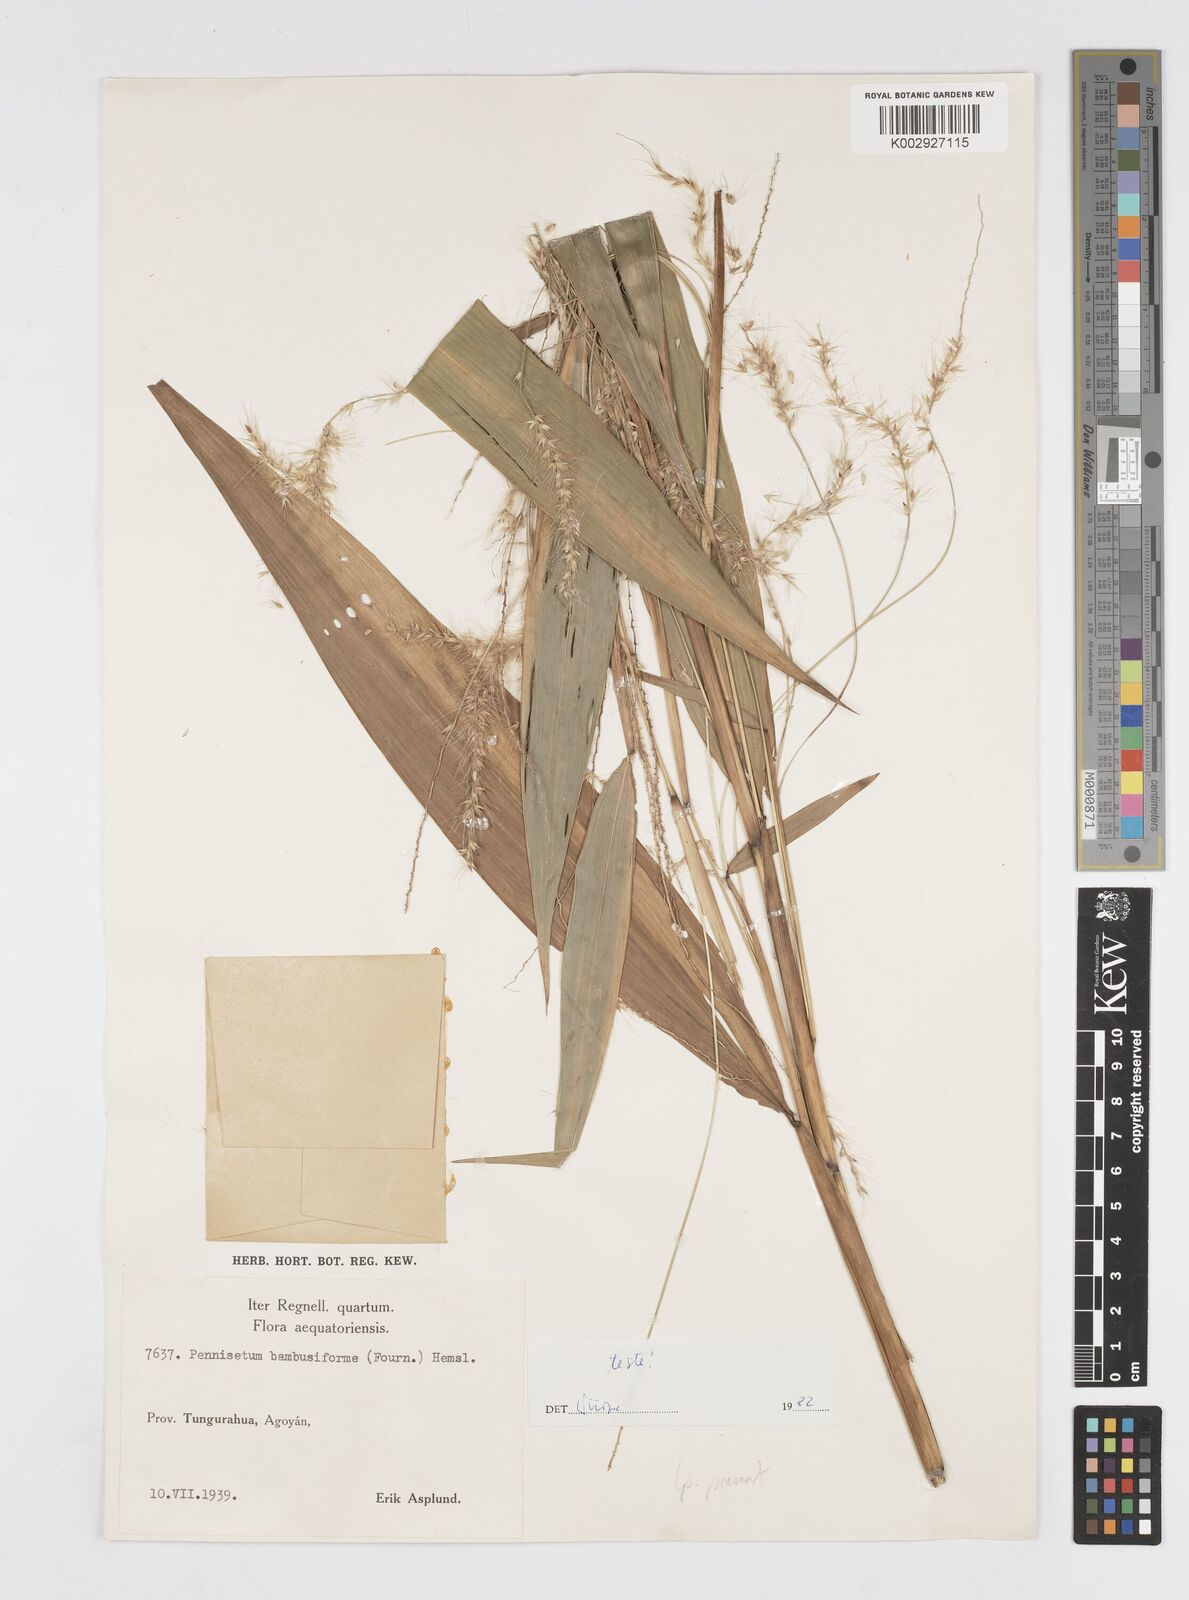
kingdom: Plantae
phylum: Tracheophyta
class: Liliopsida
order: Poales
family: Poaceae
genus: Cenchrus
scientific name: Cenchrus tristachyus
